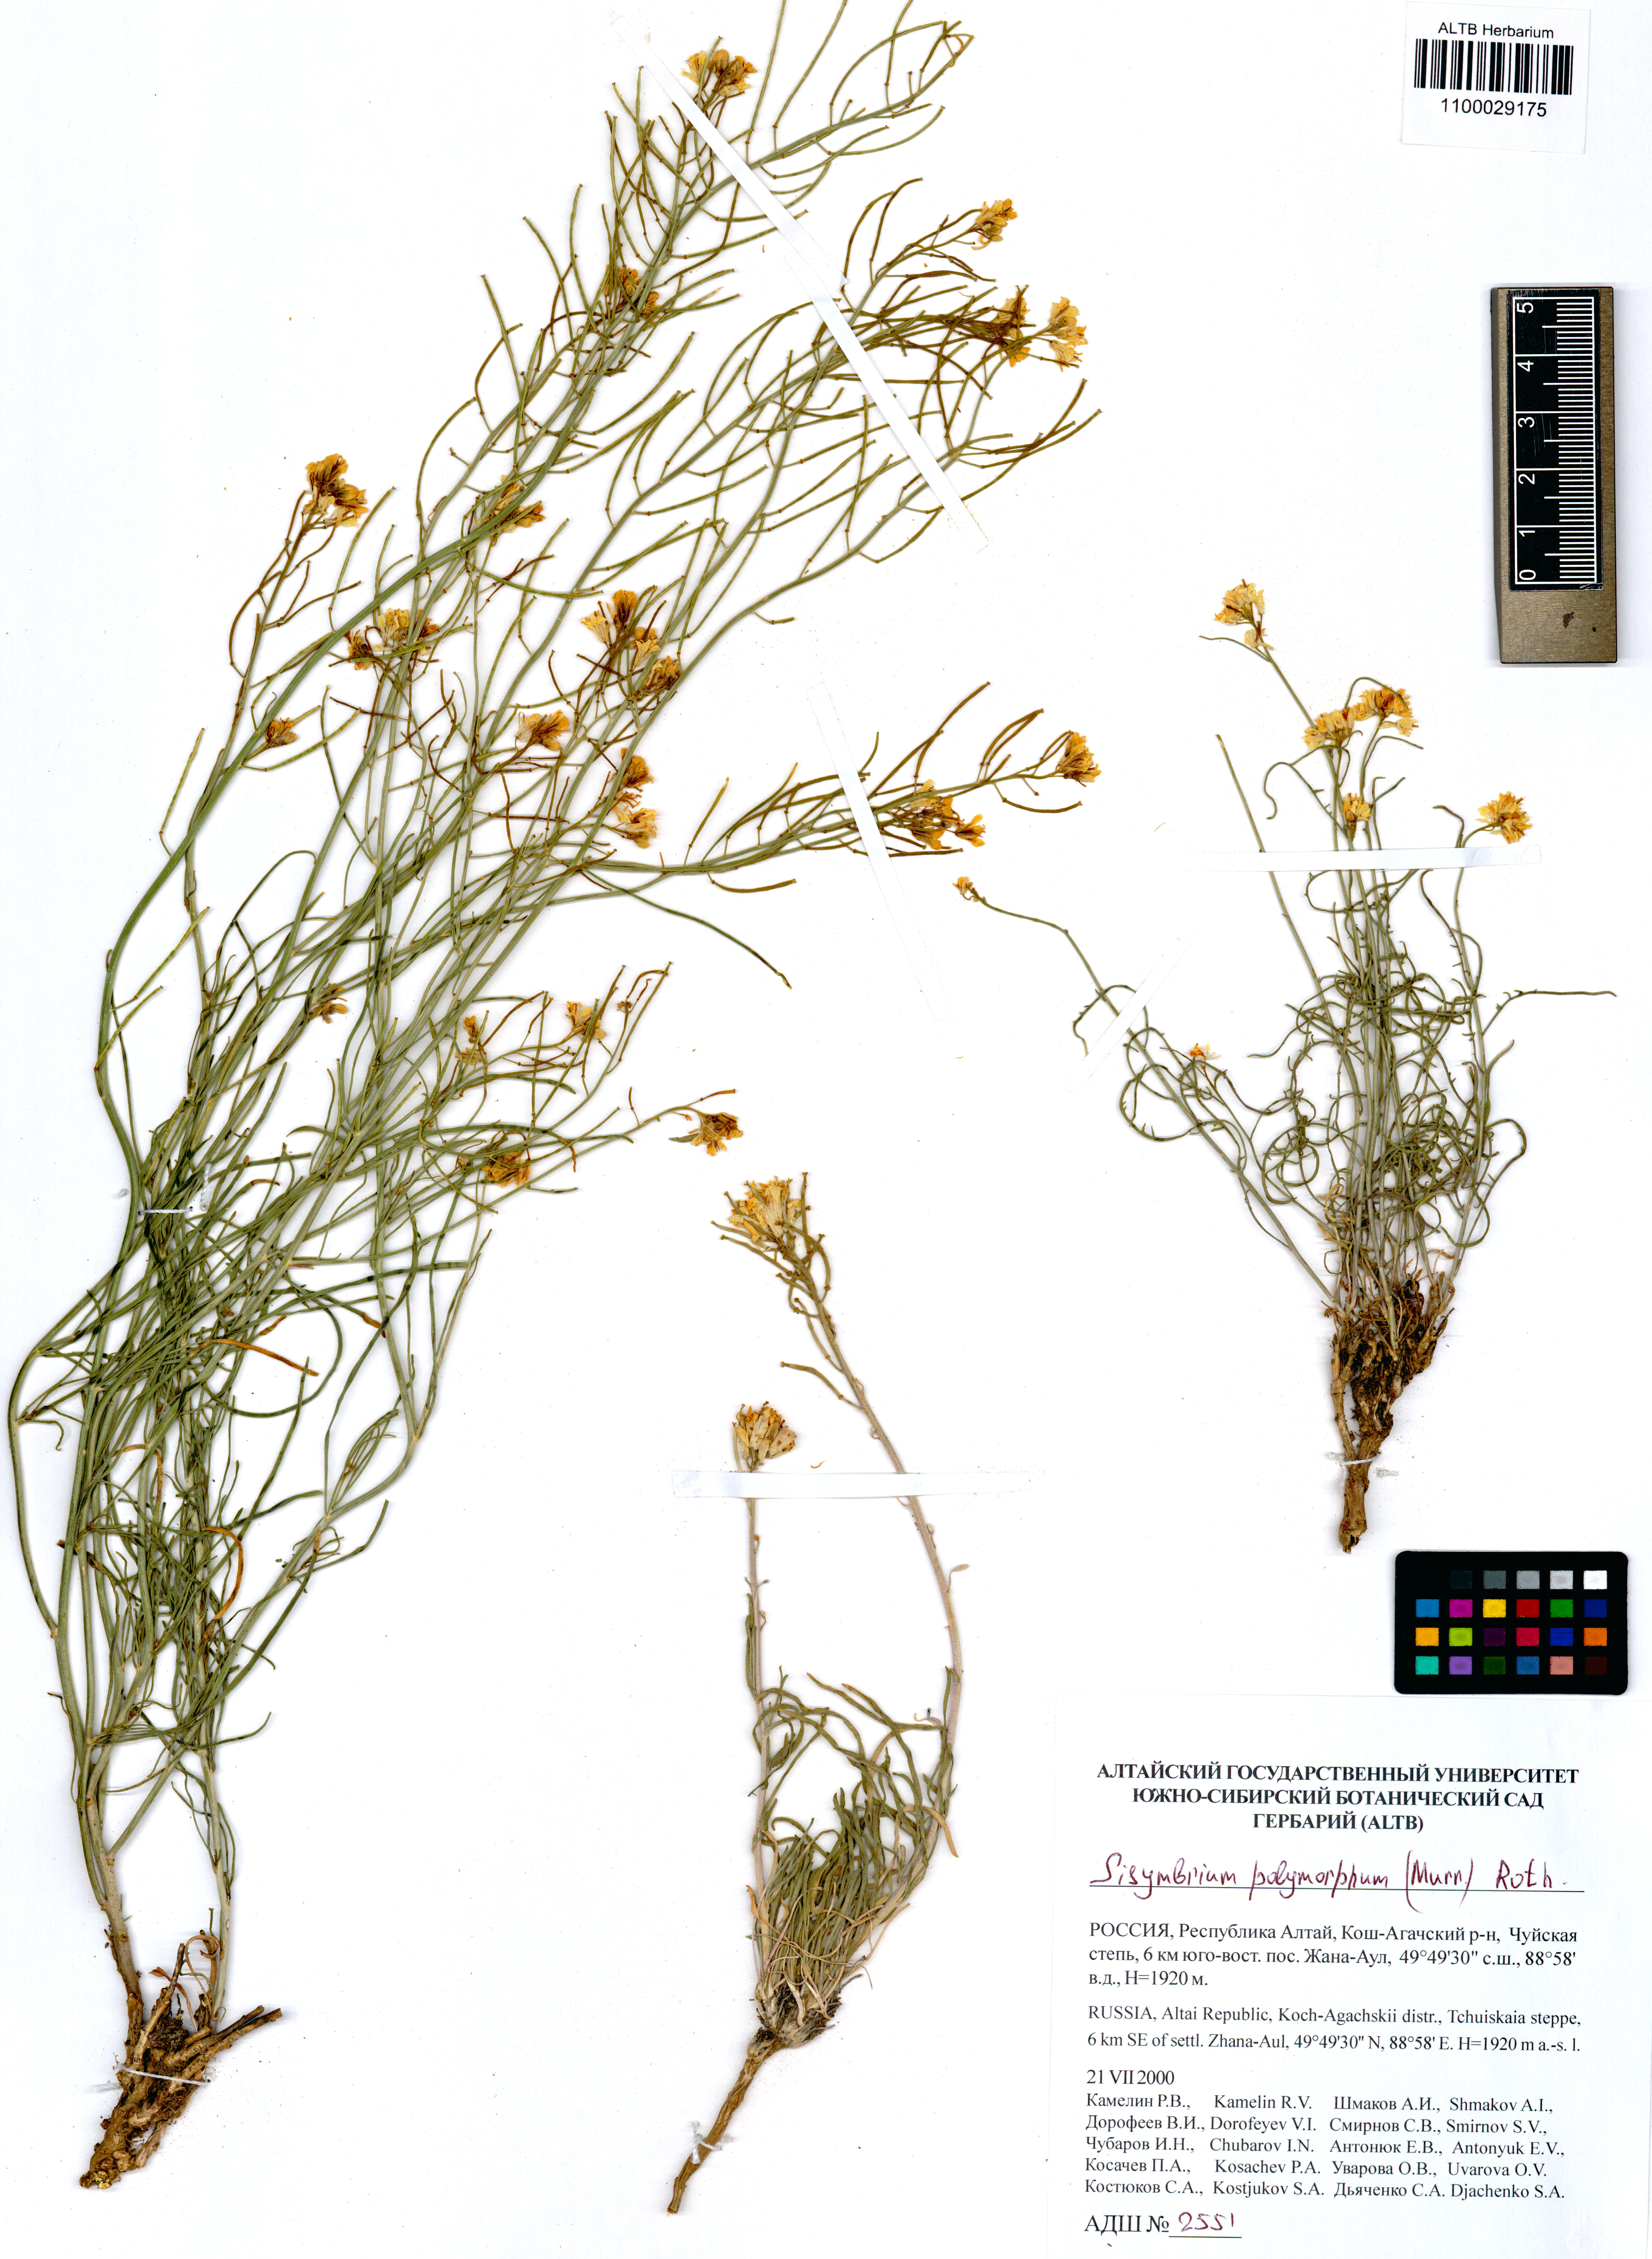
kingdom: Plantae
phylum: Tracheophyta
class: Magnoliopsida
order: Brassicales
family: Brassicaceae
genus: Sisymbrium
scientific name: Sisymbrium polymorphum
